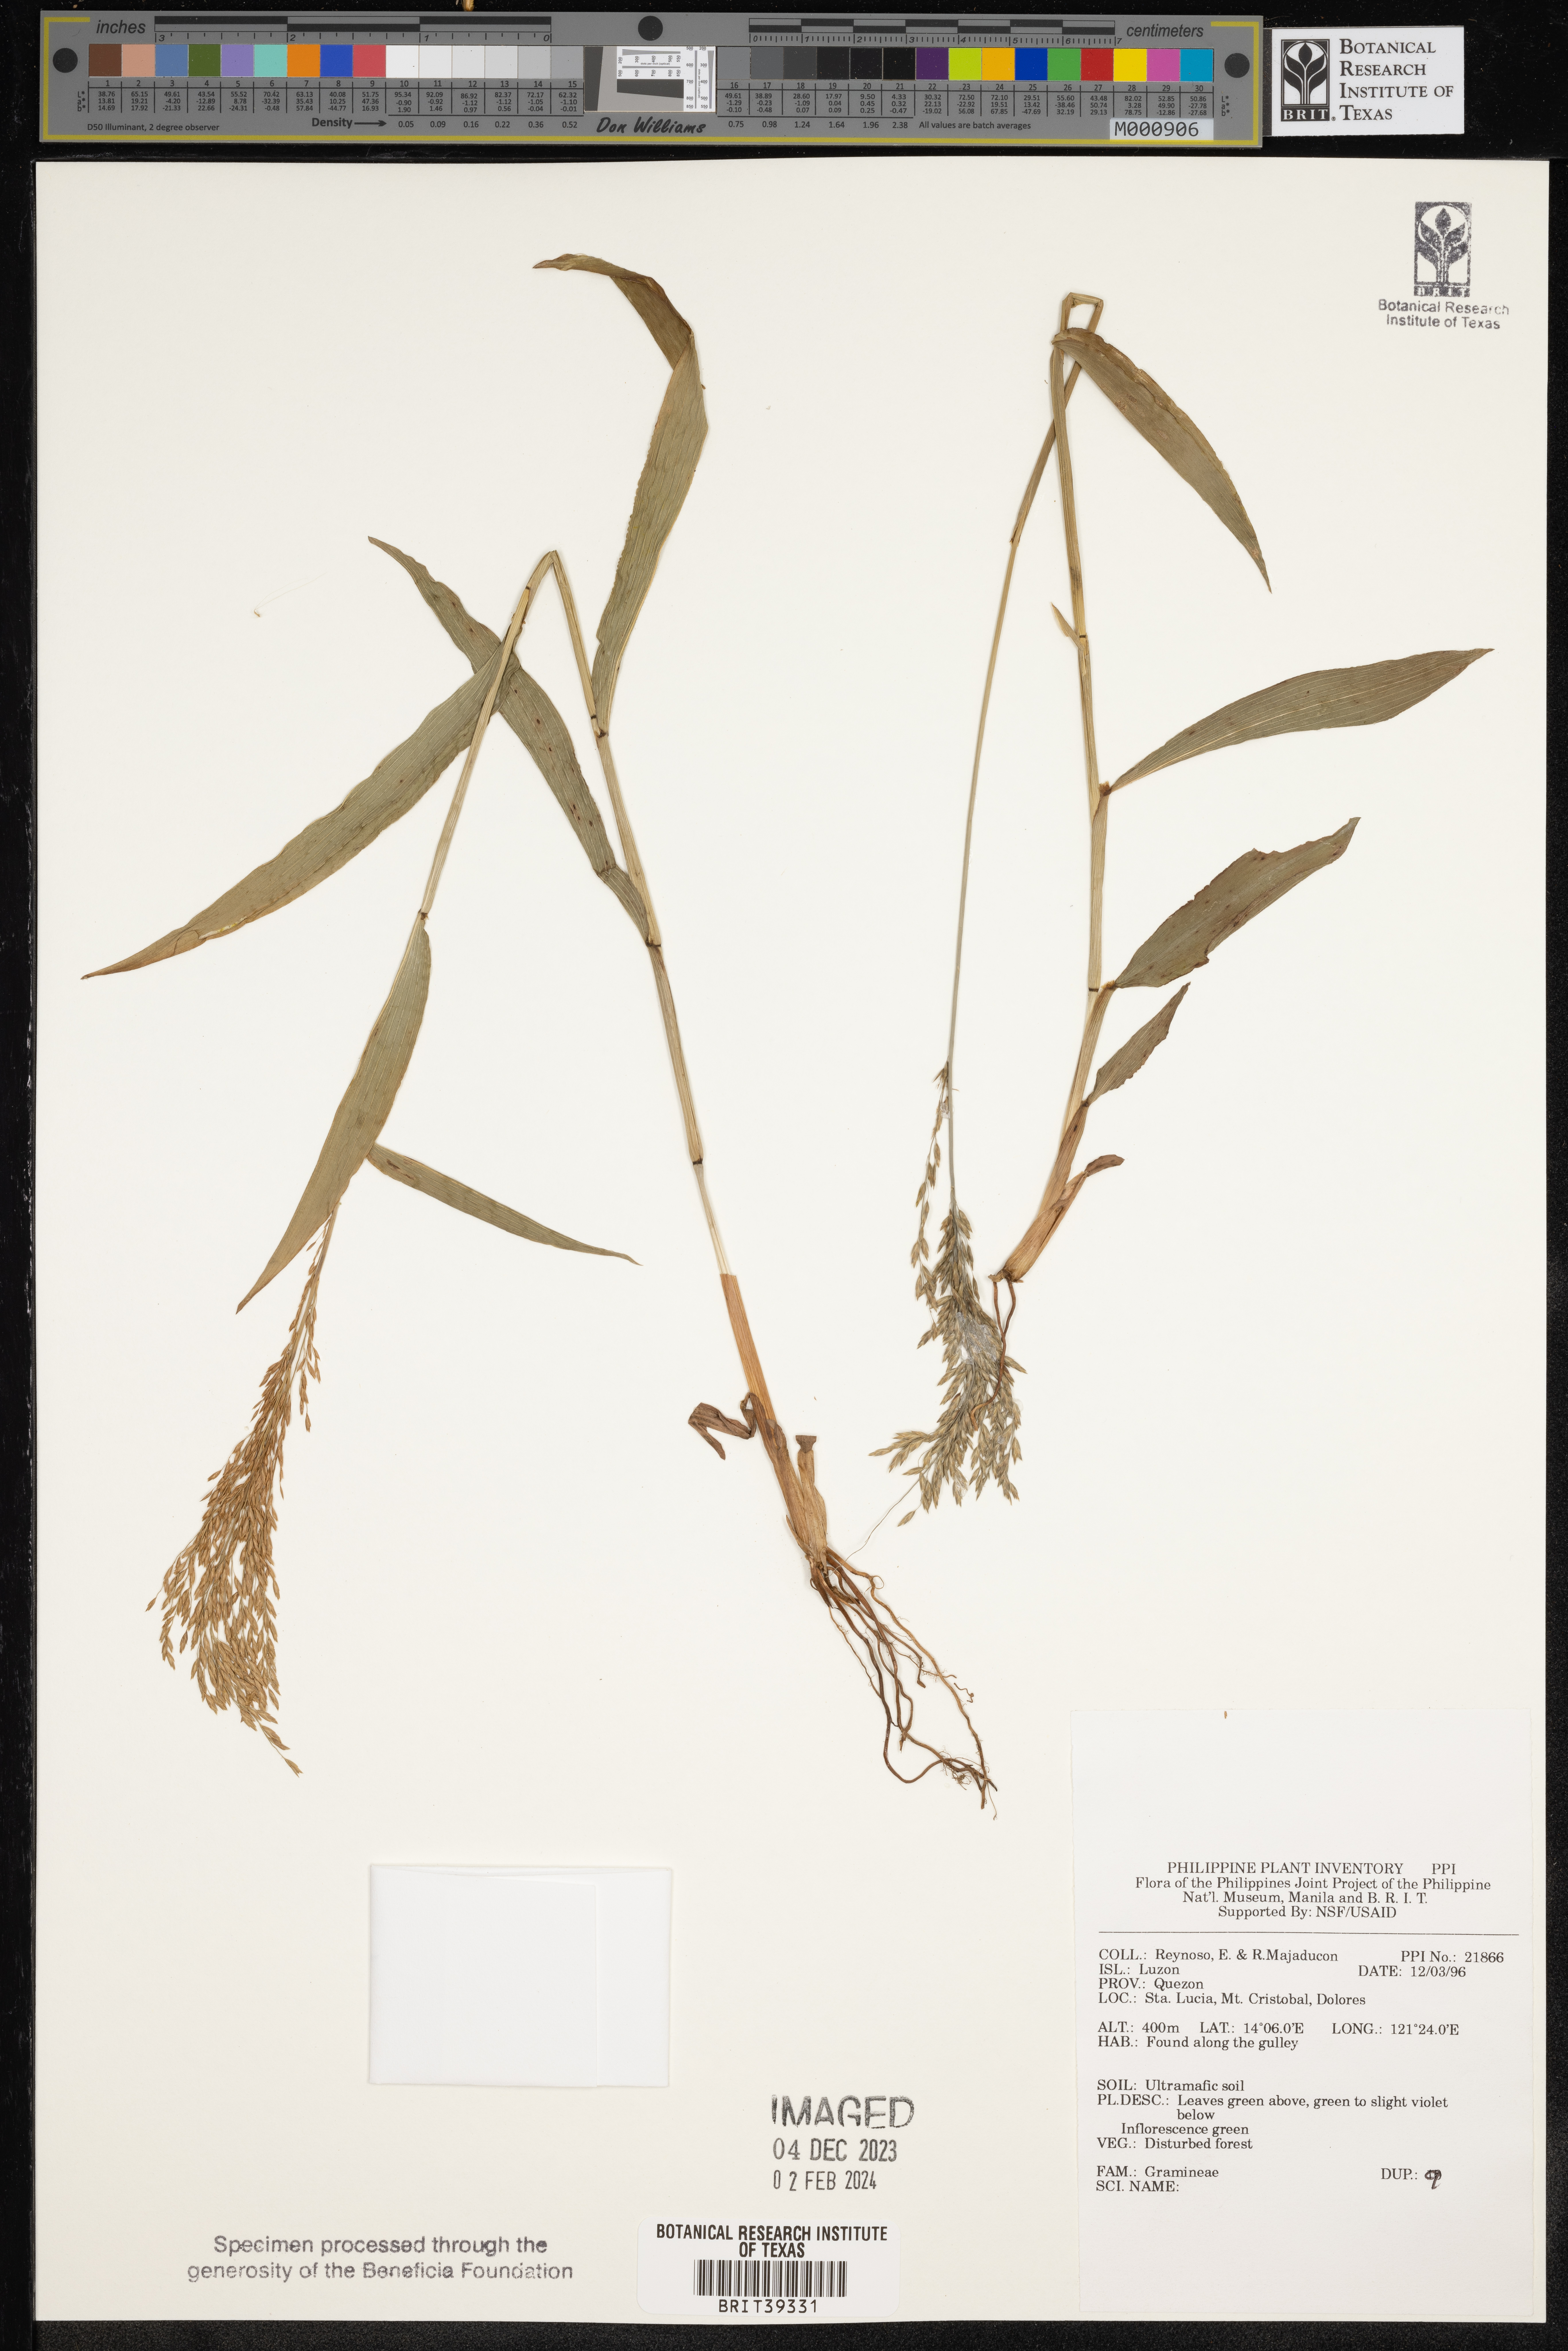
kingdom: Plantae
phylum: Tracheophyta
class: Liliopsida
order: Poales
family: Poaceae
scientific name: Poaceae
